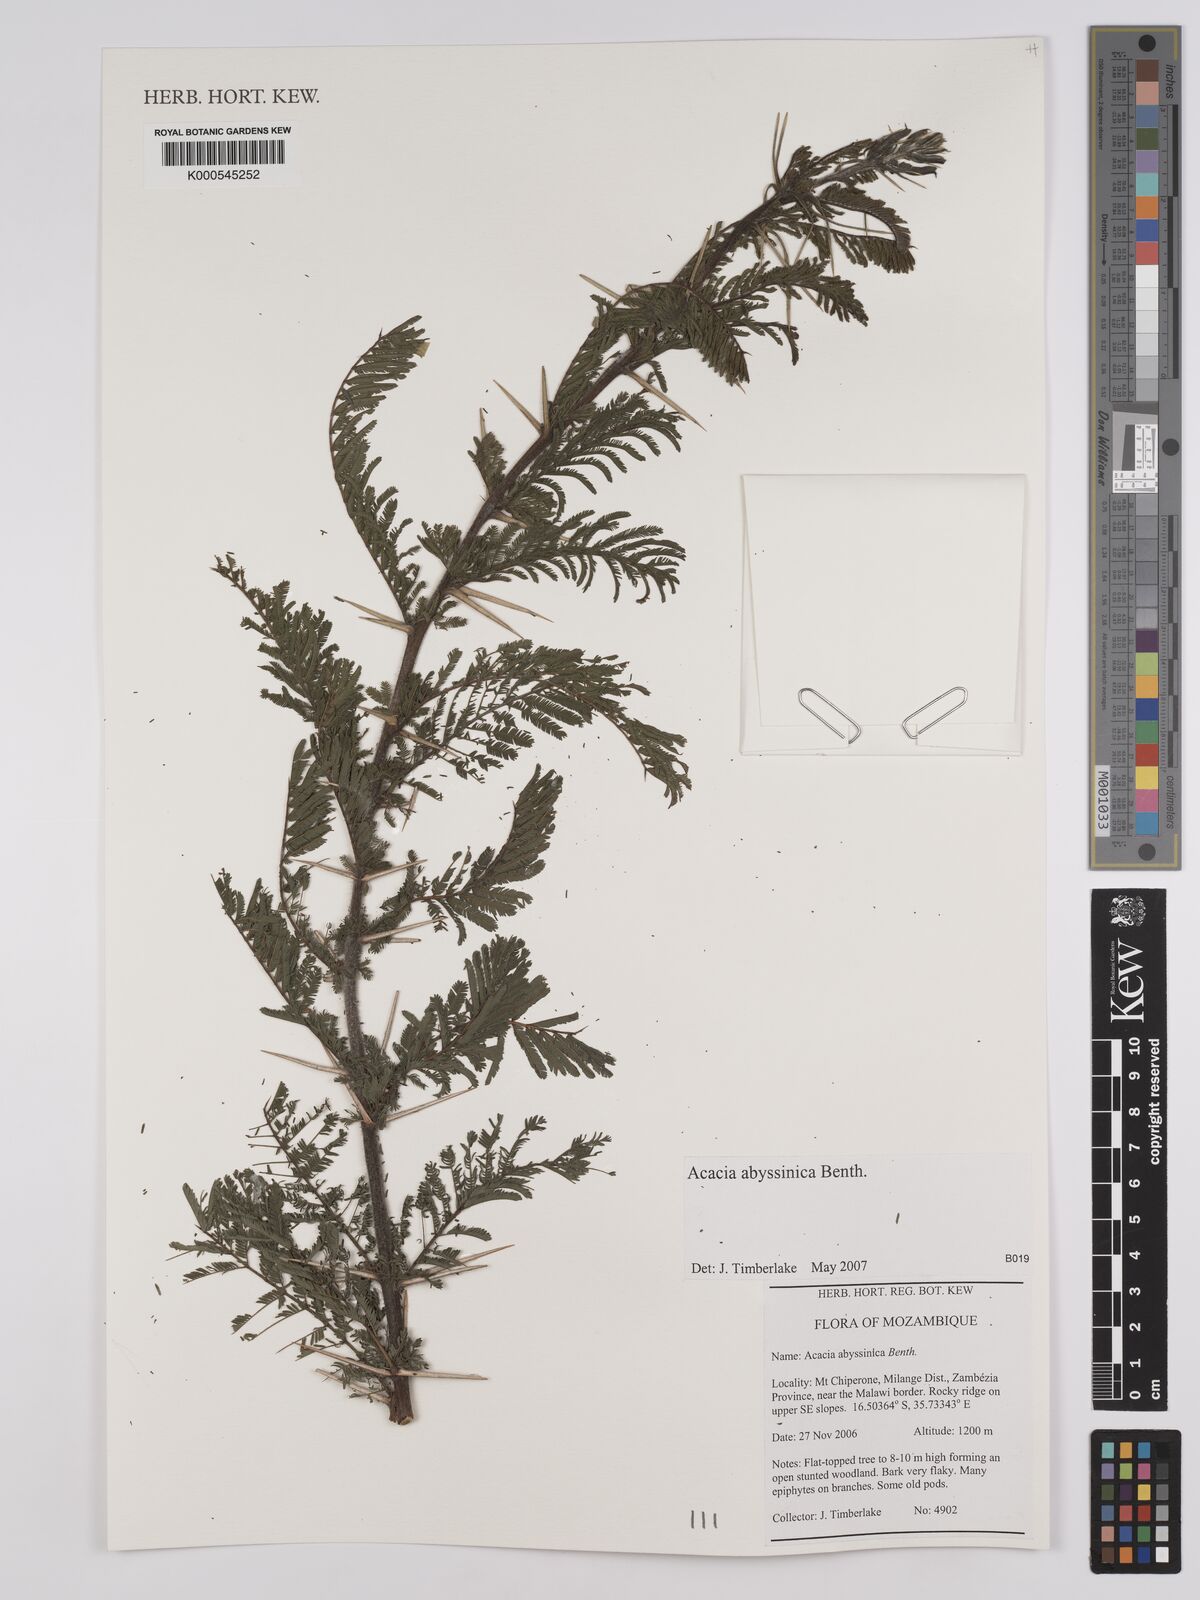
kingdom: Plantae
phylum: Tracheophyta
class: Magnoliopsida
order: Fabales
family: Fabaceae
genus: Vachellia
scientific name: Vachellia abyssinica
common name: Nyanga flat-top
